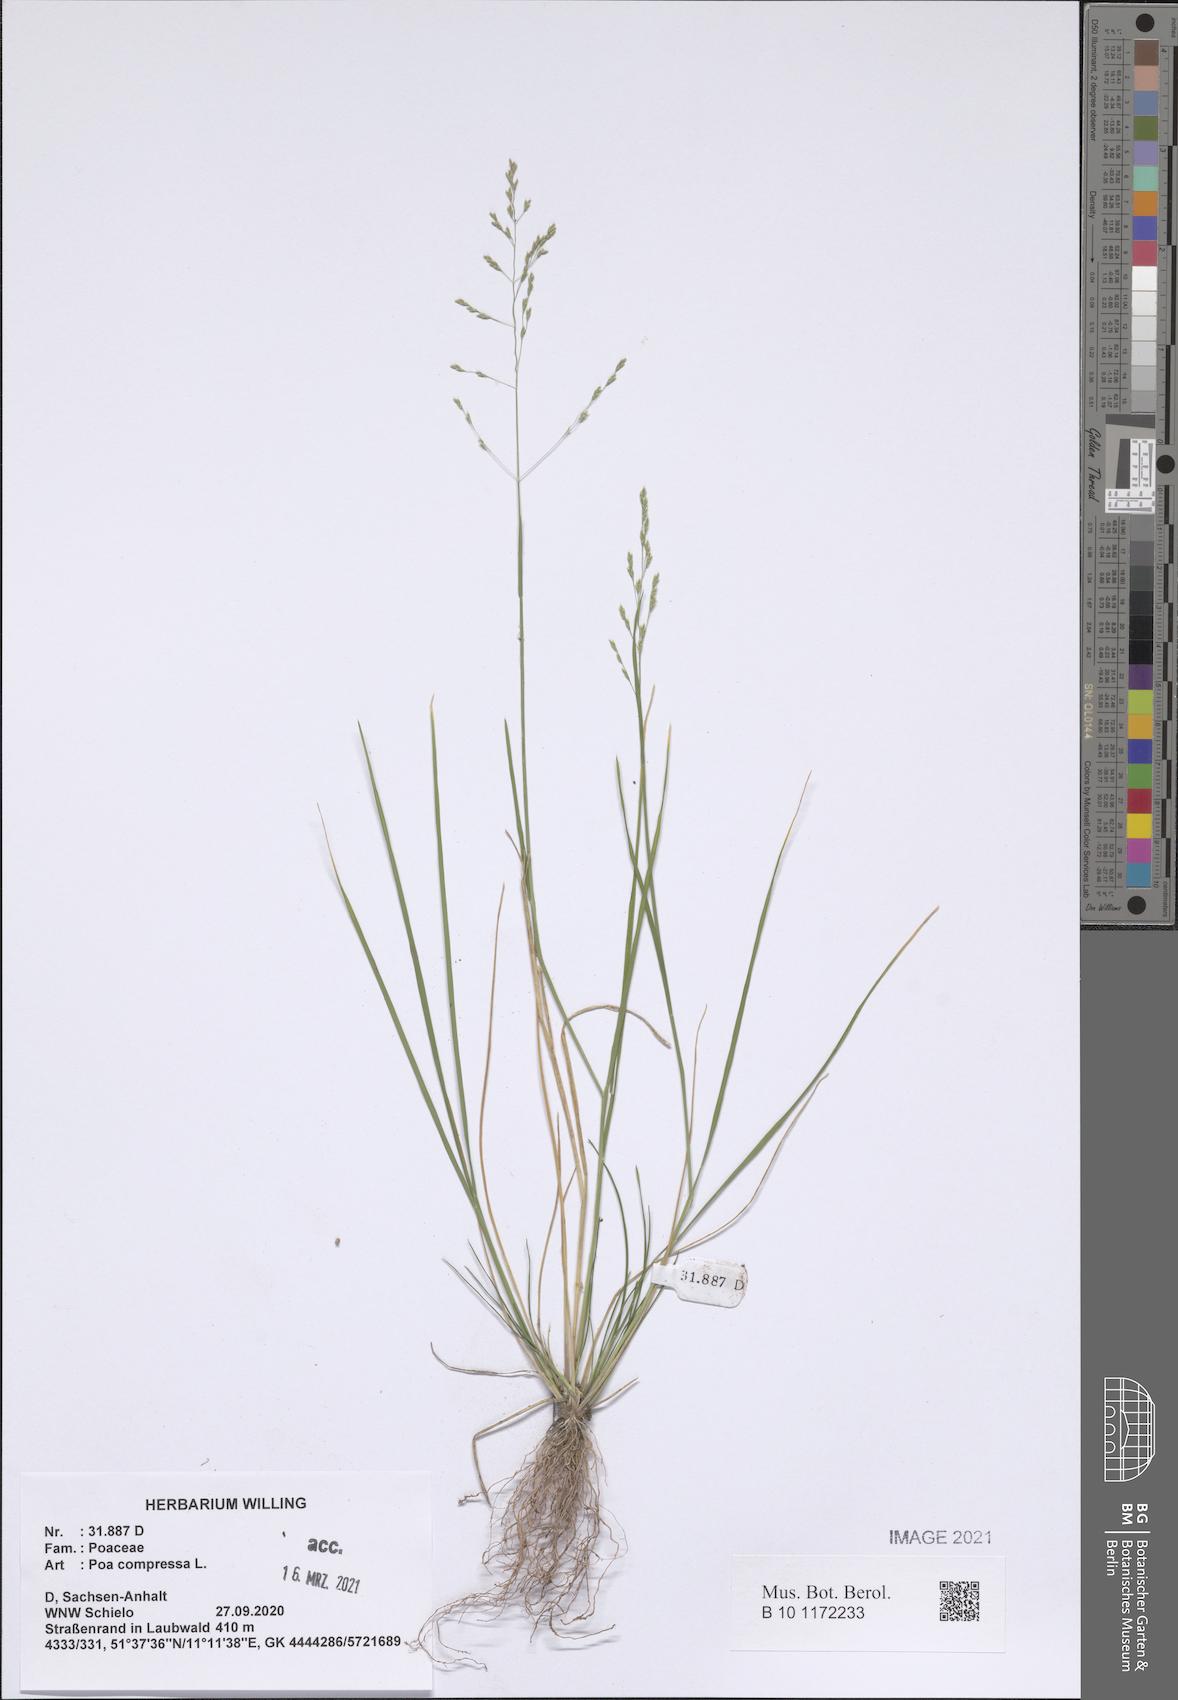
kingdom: Plantae
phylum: Tracheophyta
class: Liliopsida
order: Poales
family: Poaceae
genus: Poa
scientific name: Poa compressa
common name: Canada bluegrass
